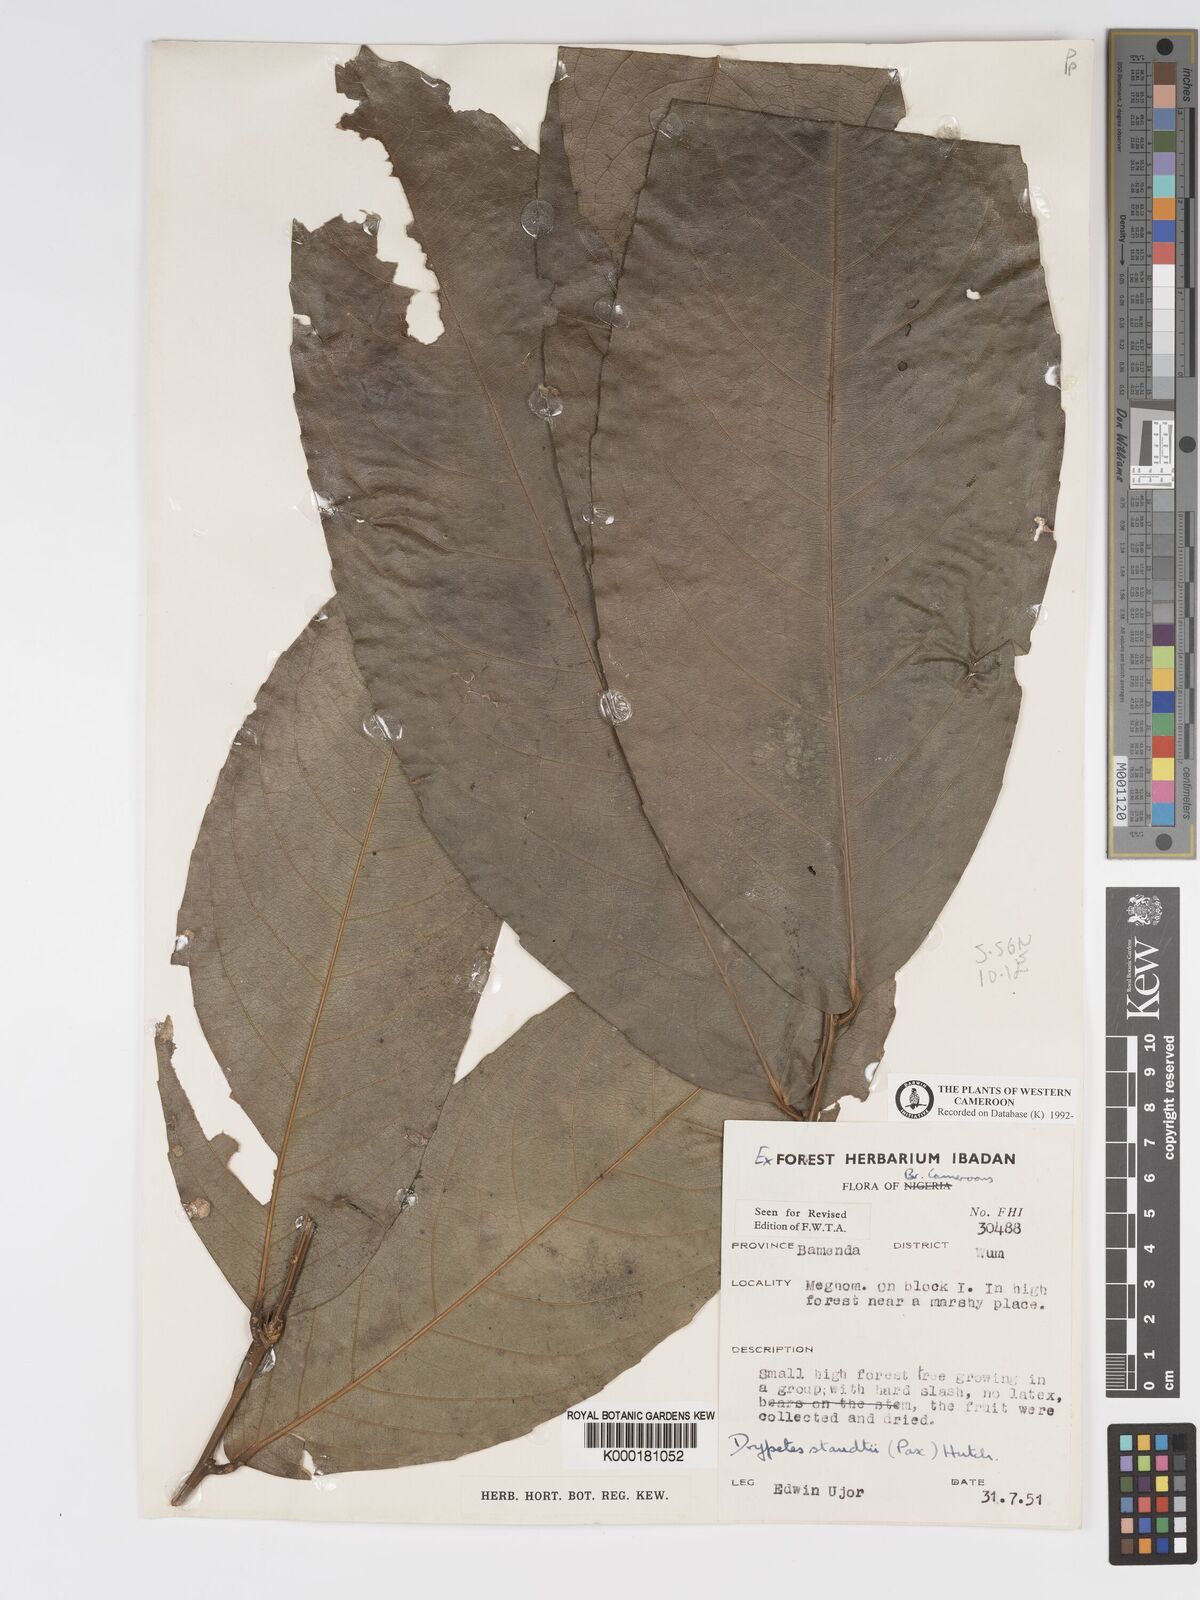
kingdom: Plantae
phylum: Tracheophyta
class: Magnoliopsida
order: Malpighiales
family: Putranjivaceae
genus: Drypetes
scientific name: Drypetes staudtii
